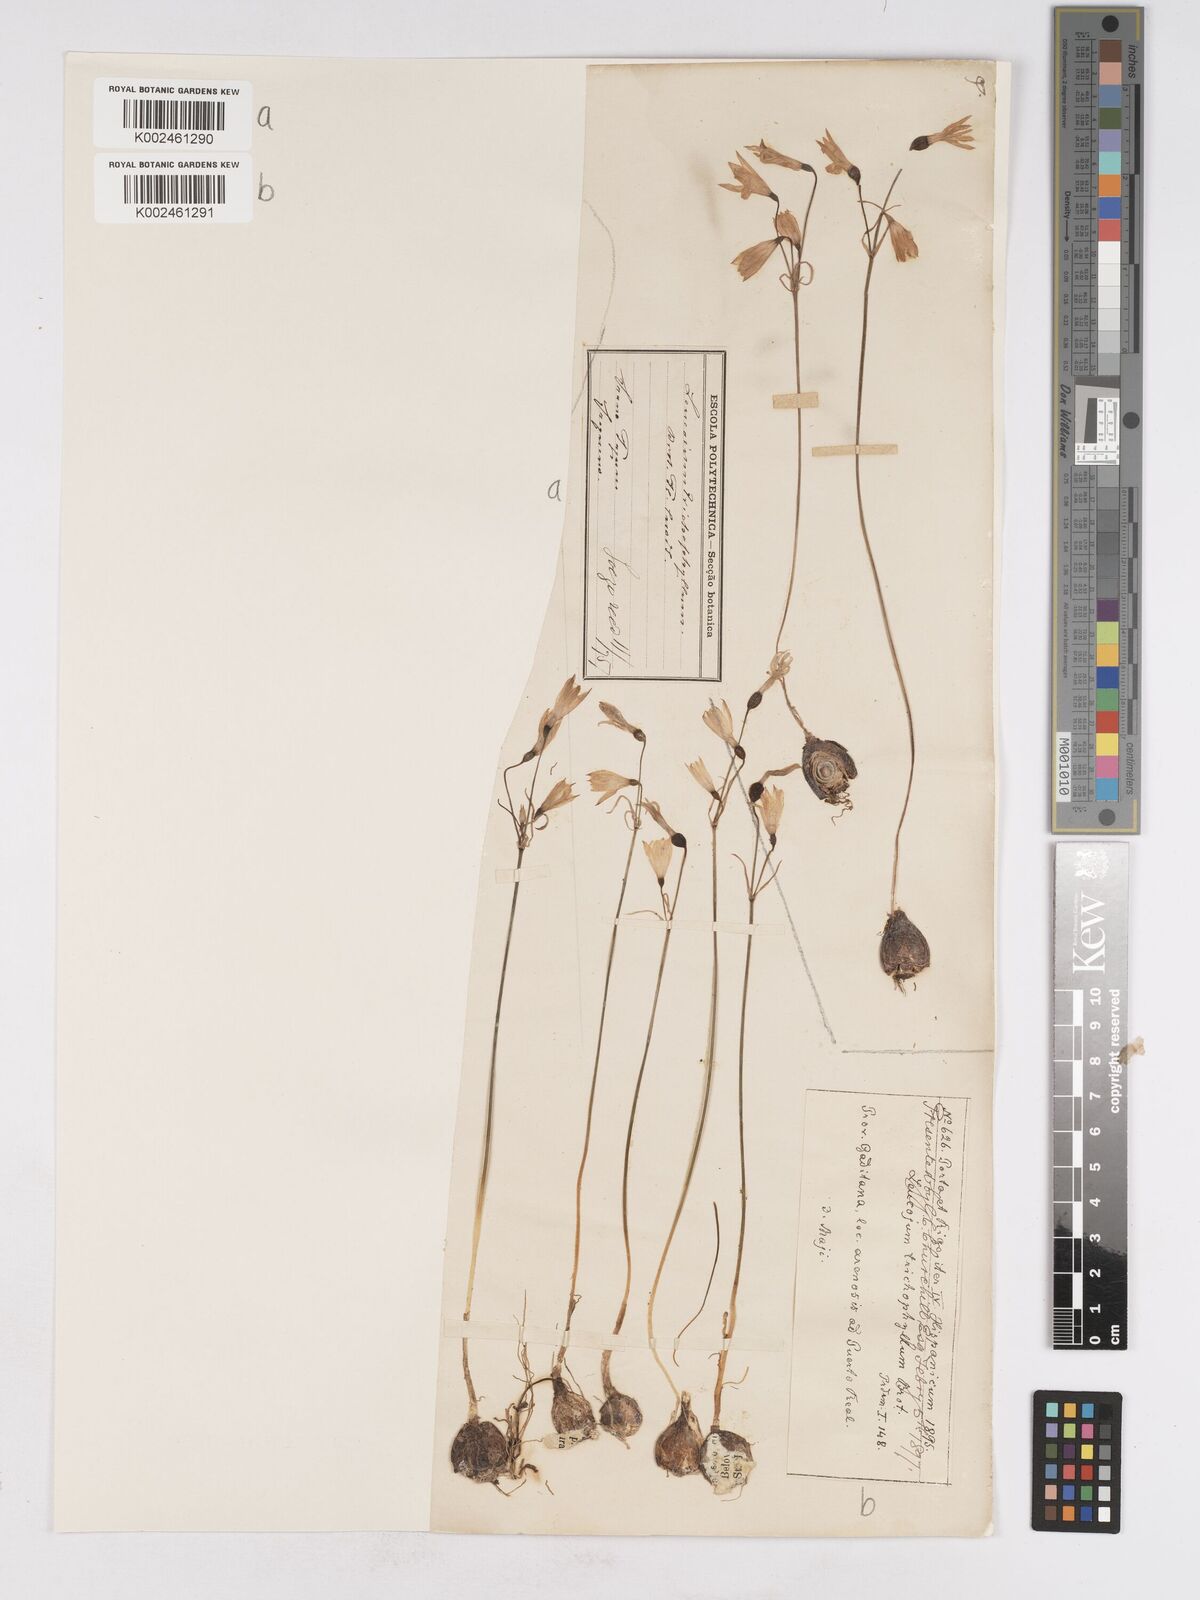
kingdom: Plantae
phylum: Tracheophyta
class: Liliopsida
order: Asparagales
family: Amaryllidaceae
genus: Acis
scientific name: Acis trichophylla
